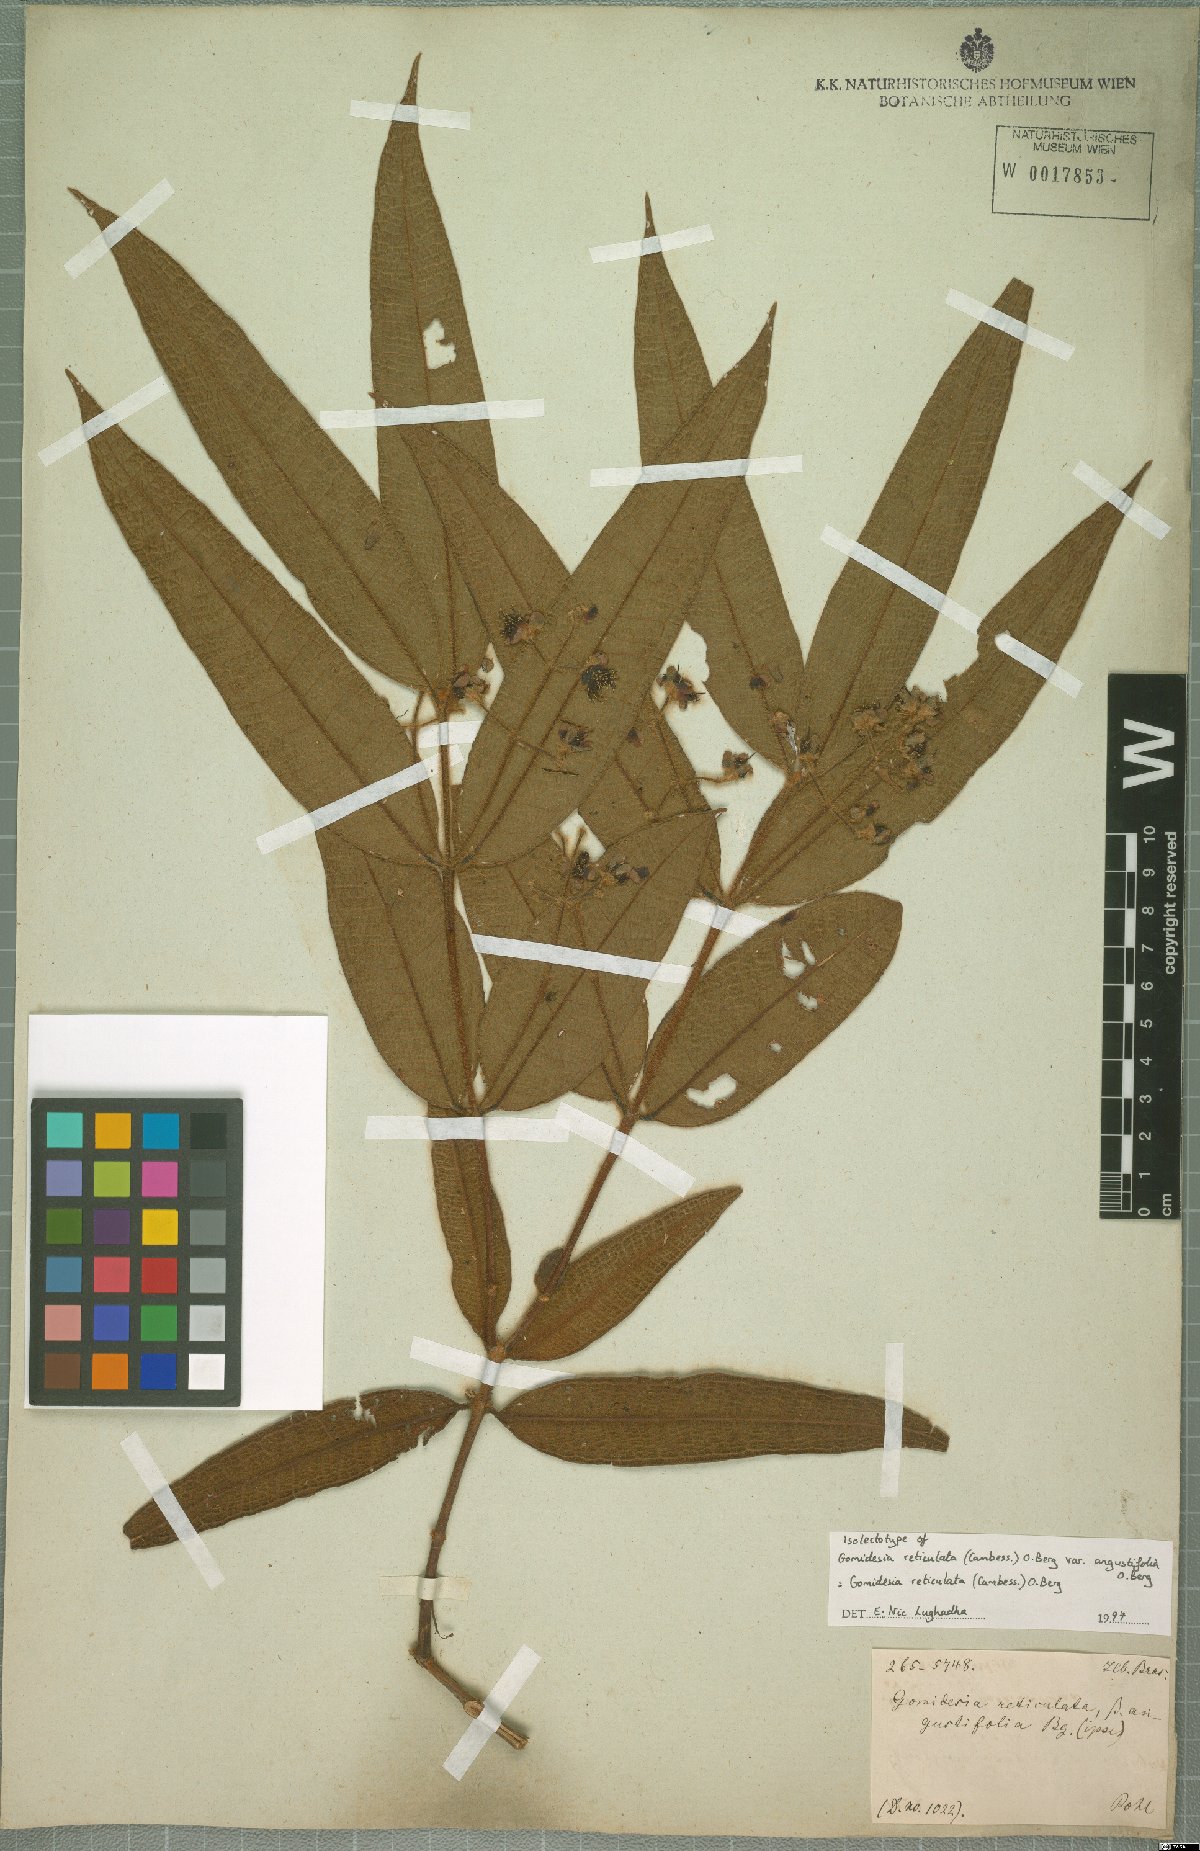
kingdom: Plantae
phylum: Tracheophyta
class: Magnoliopsida
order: Myrtales
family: Myrtaceae
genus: Myrcia
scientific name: Myrcia reticulata
